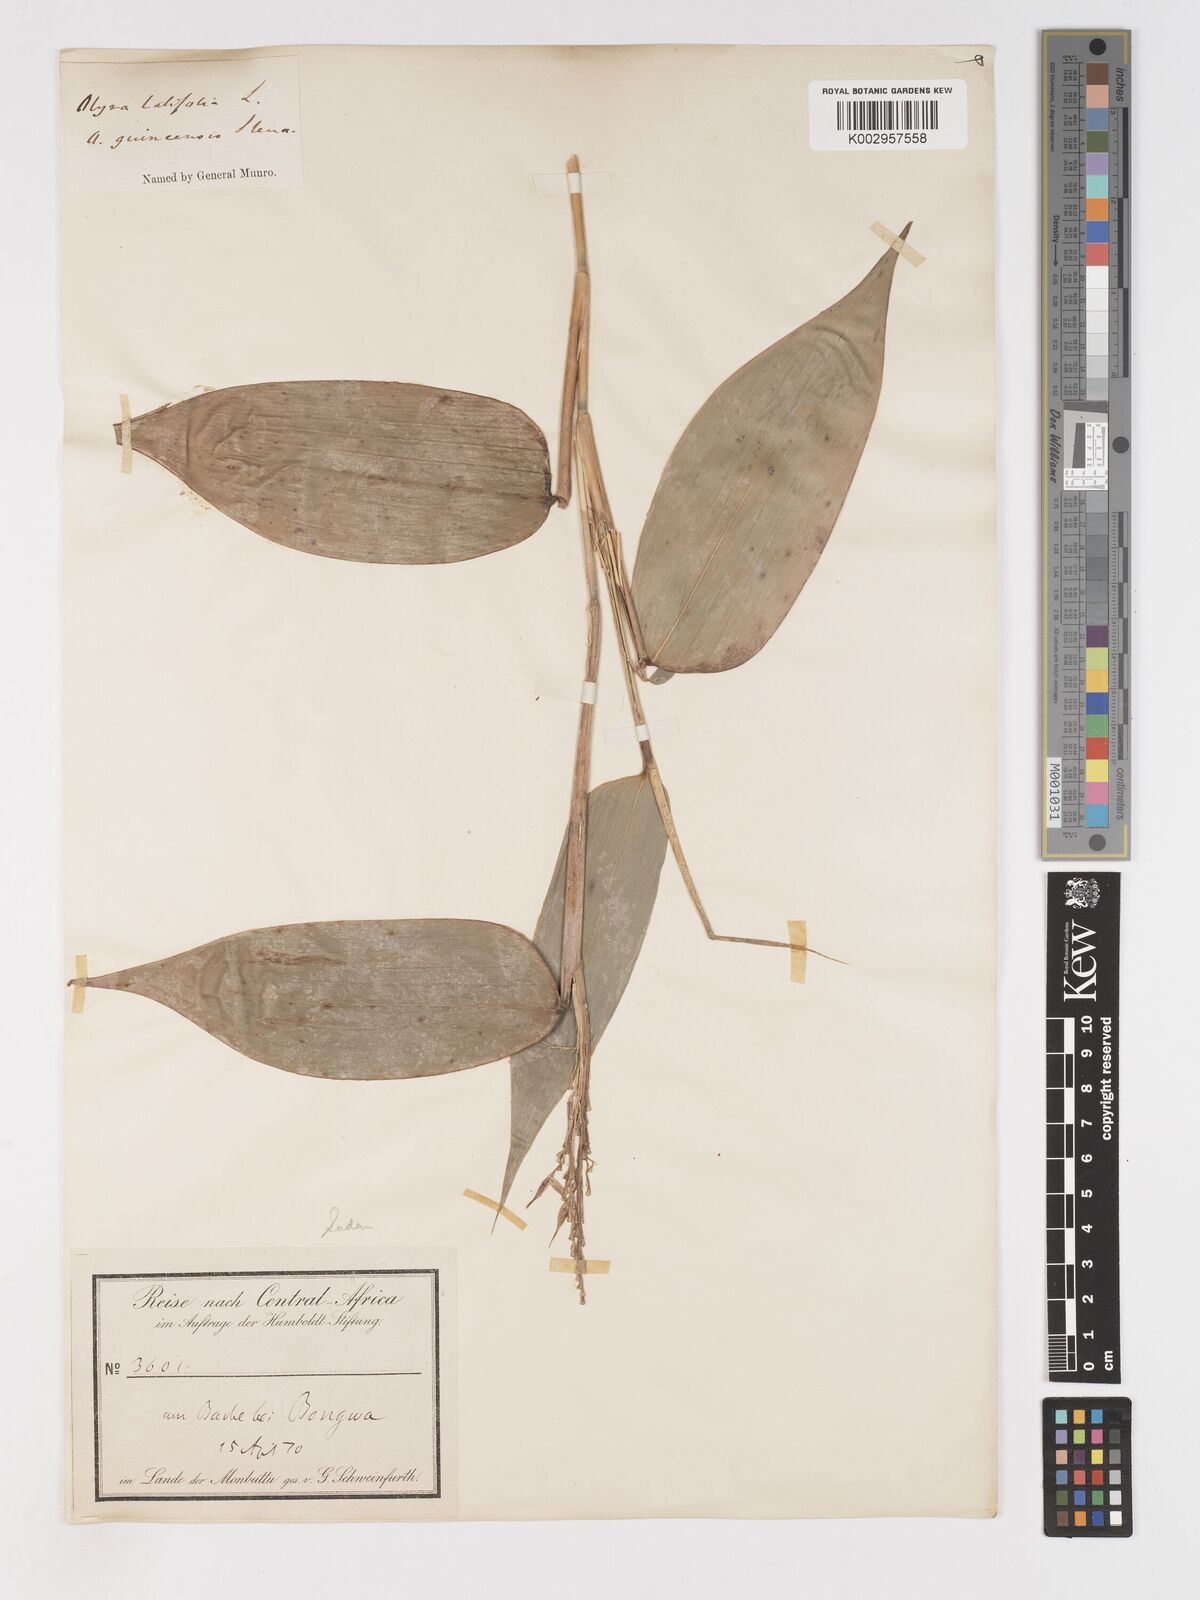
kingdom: Plantae
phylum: Tracheophyta
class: Liliopsida
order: Poales
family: Poaceae
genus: Olyra
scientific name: Olyra latifolia
